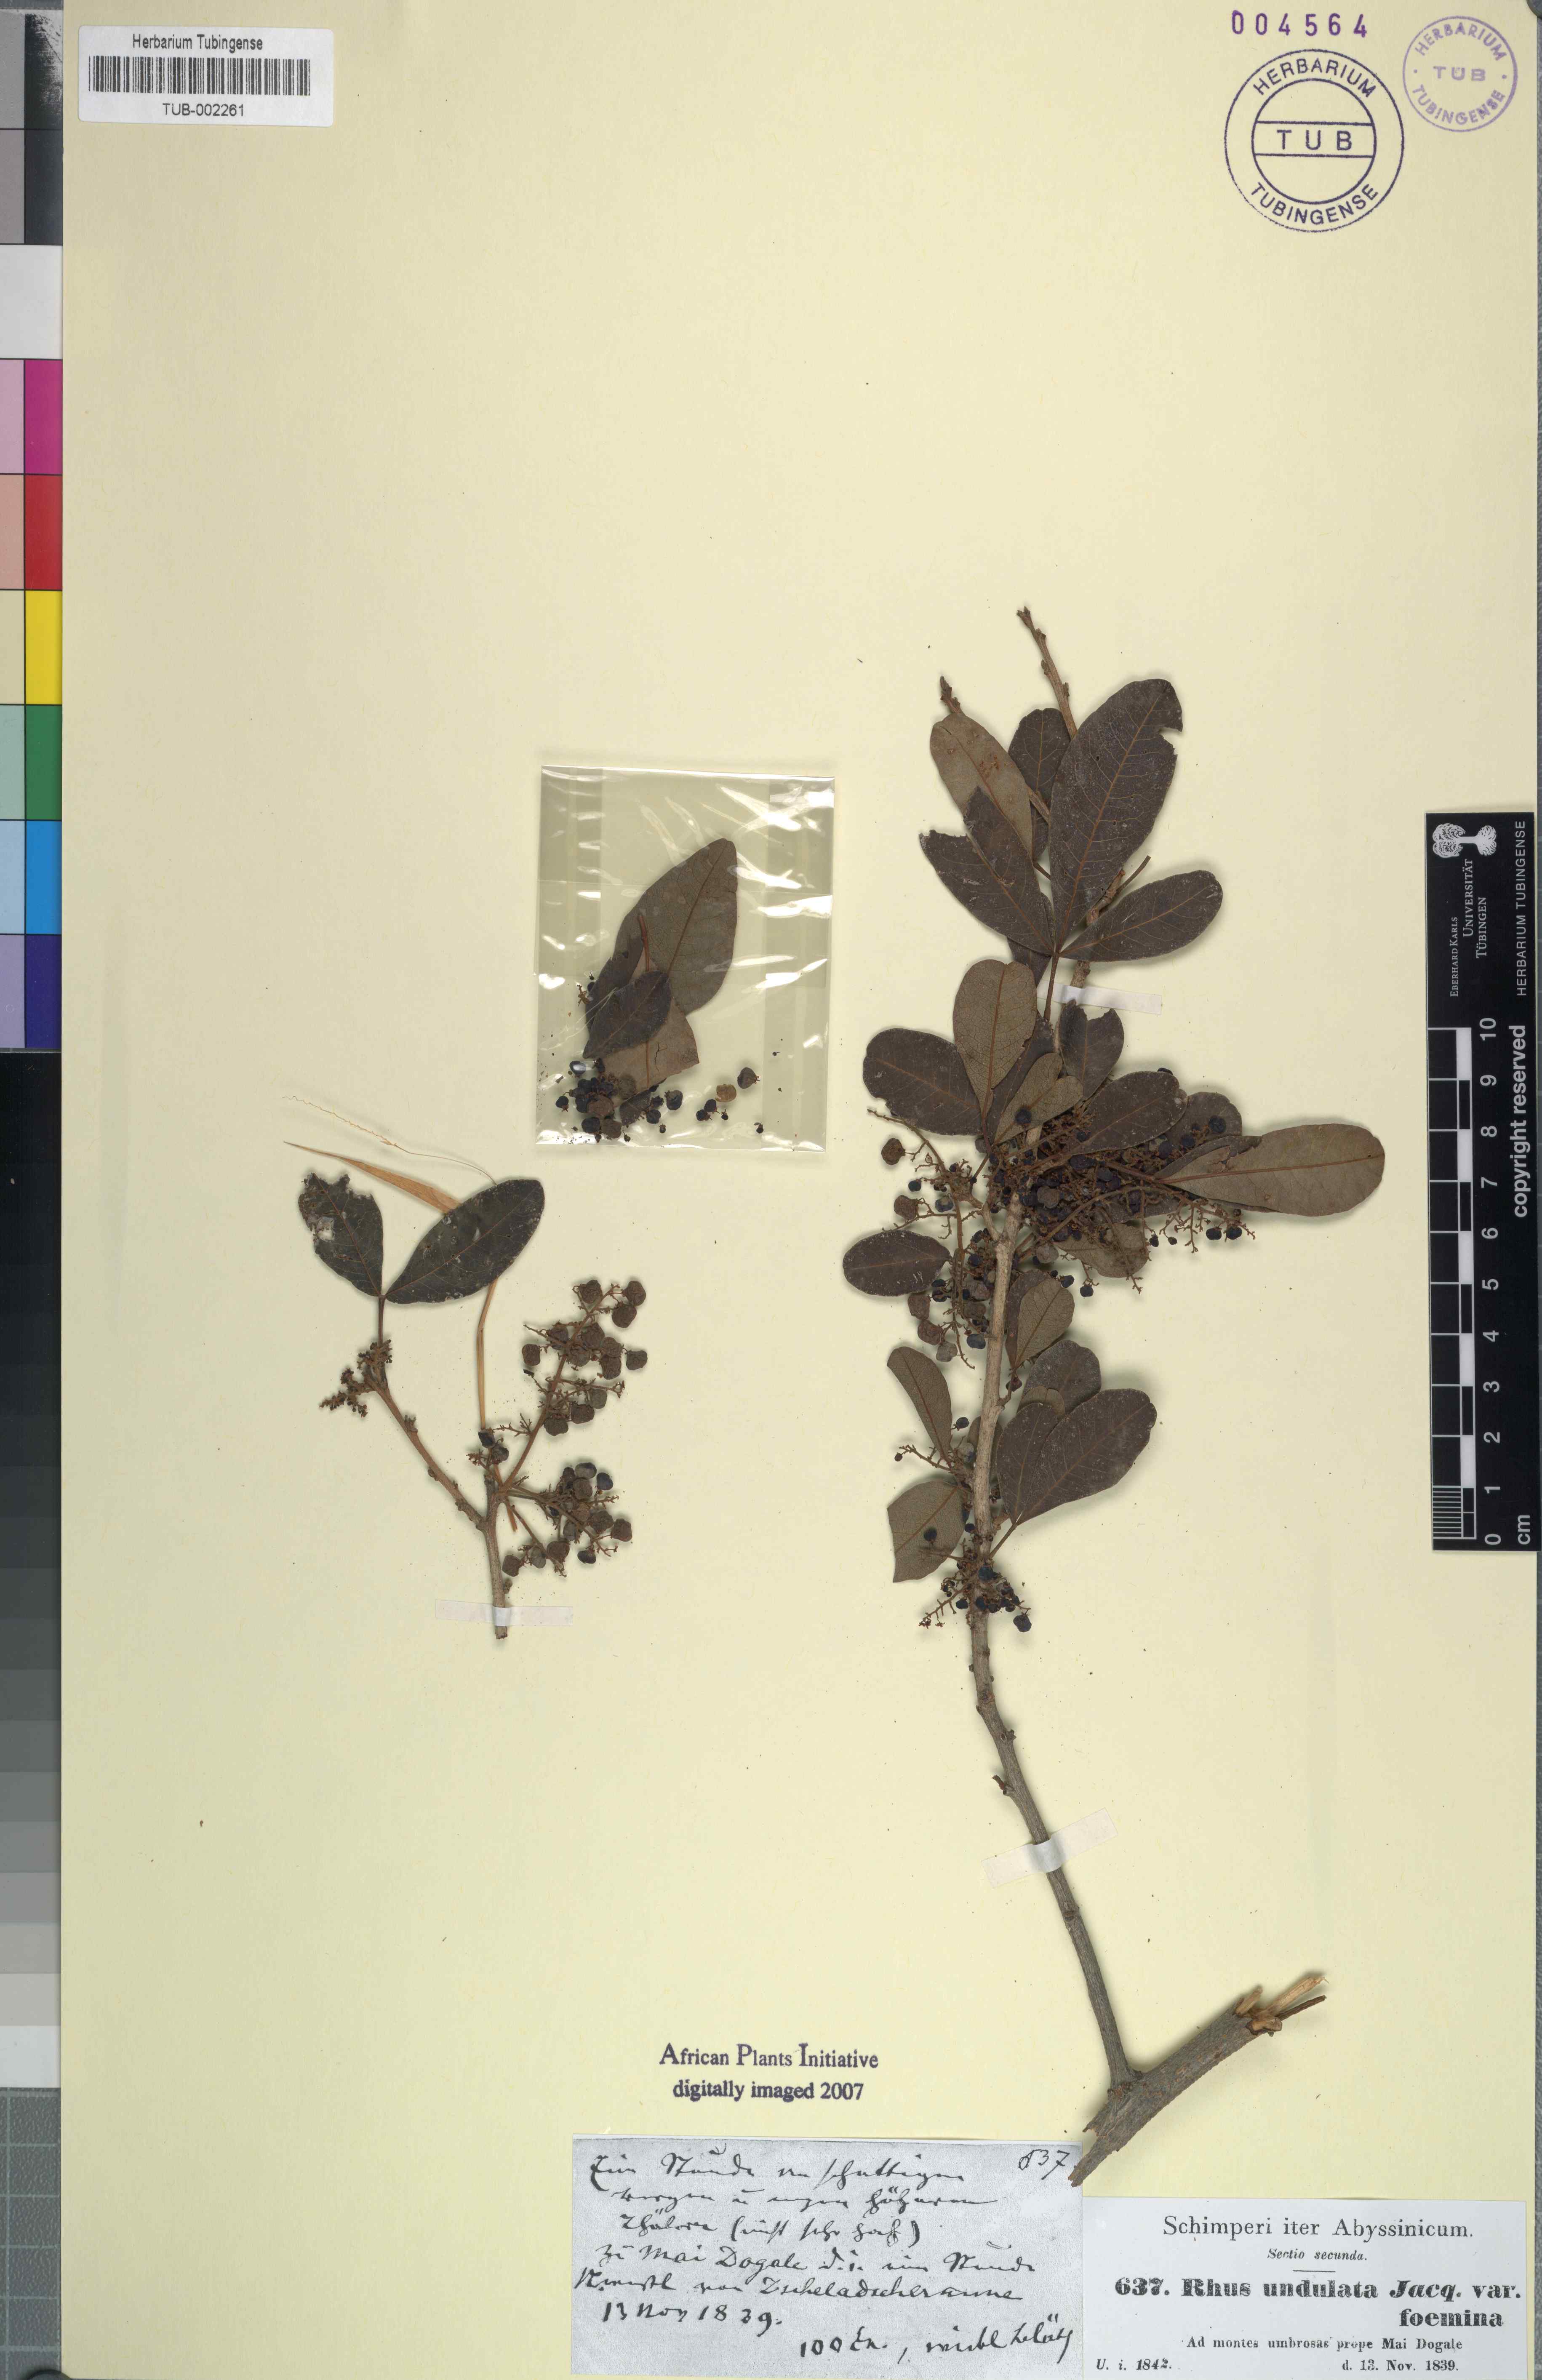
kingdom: Plantae
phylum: Tracheophyta
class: Magnoliopsida
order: Sapindales
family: Anacardiaceae
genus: Searsia
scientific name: Searsia undulata
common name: Namaqua kunibush
